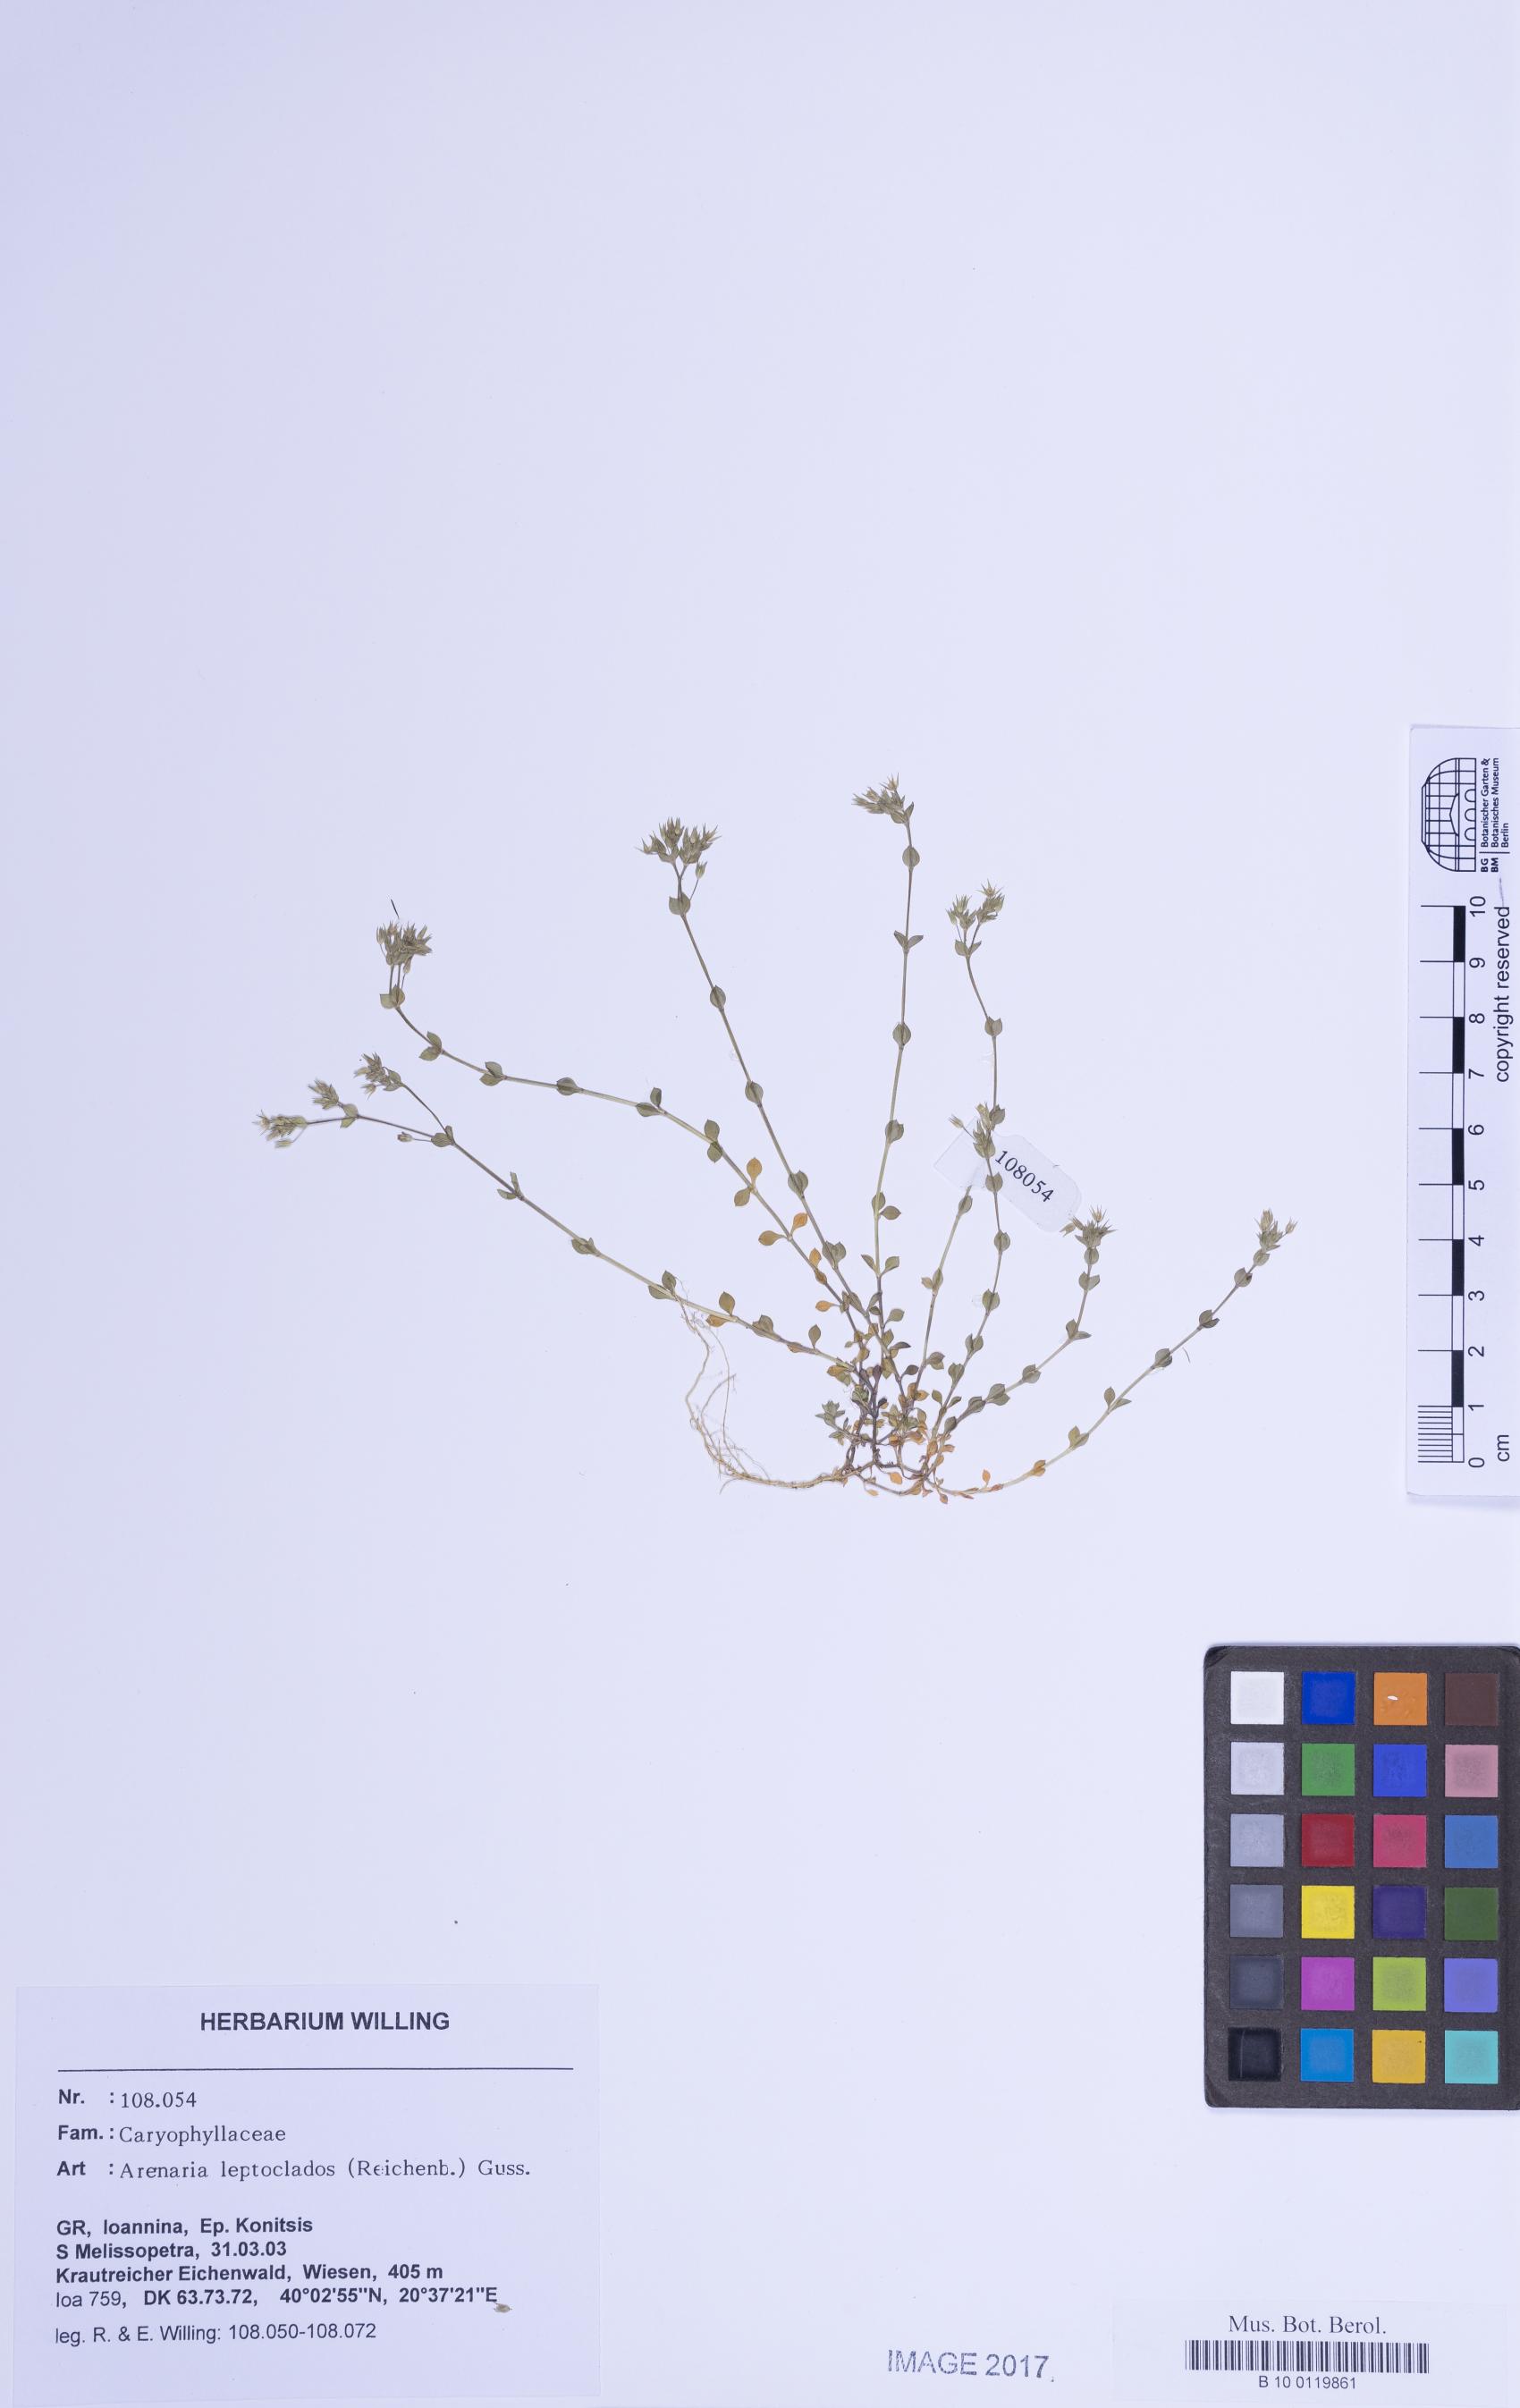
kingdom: Plantae
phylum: Tracheophyta
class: Magnoliopsida
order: Caryophyllales
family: Caryophyllaceae
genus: Arenaria
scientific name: Arenaria leptoclados
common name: Thyme-leaved sandwort
